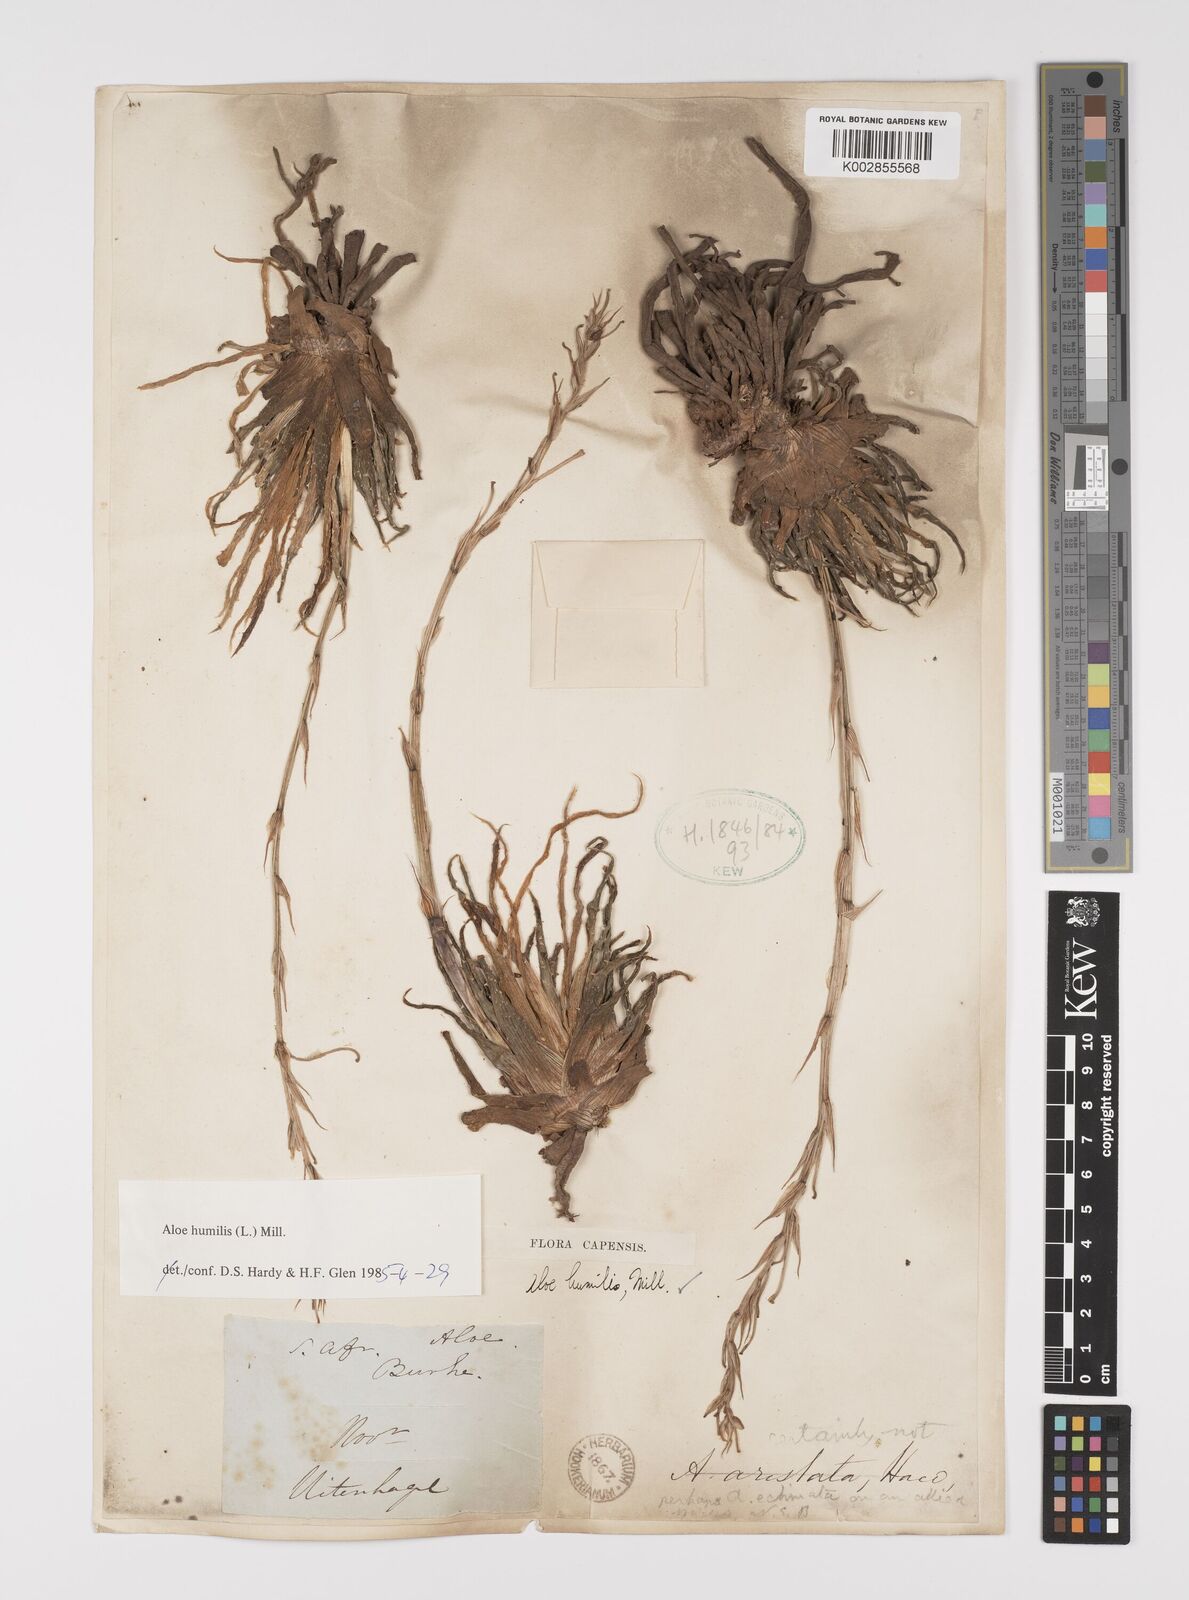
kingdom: Plantae
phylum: Tracheophyta
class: Liliopsida
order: Asparagales
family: Asphodelaceae
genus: Aloe
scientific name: Aloe humilis
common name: Dwarf hedgehog aloe
